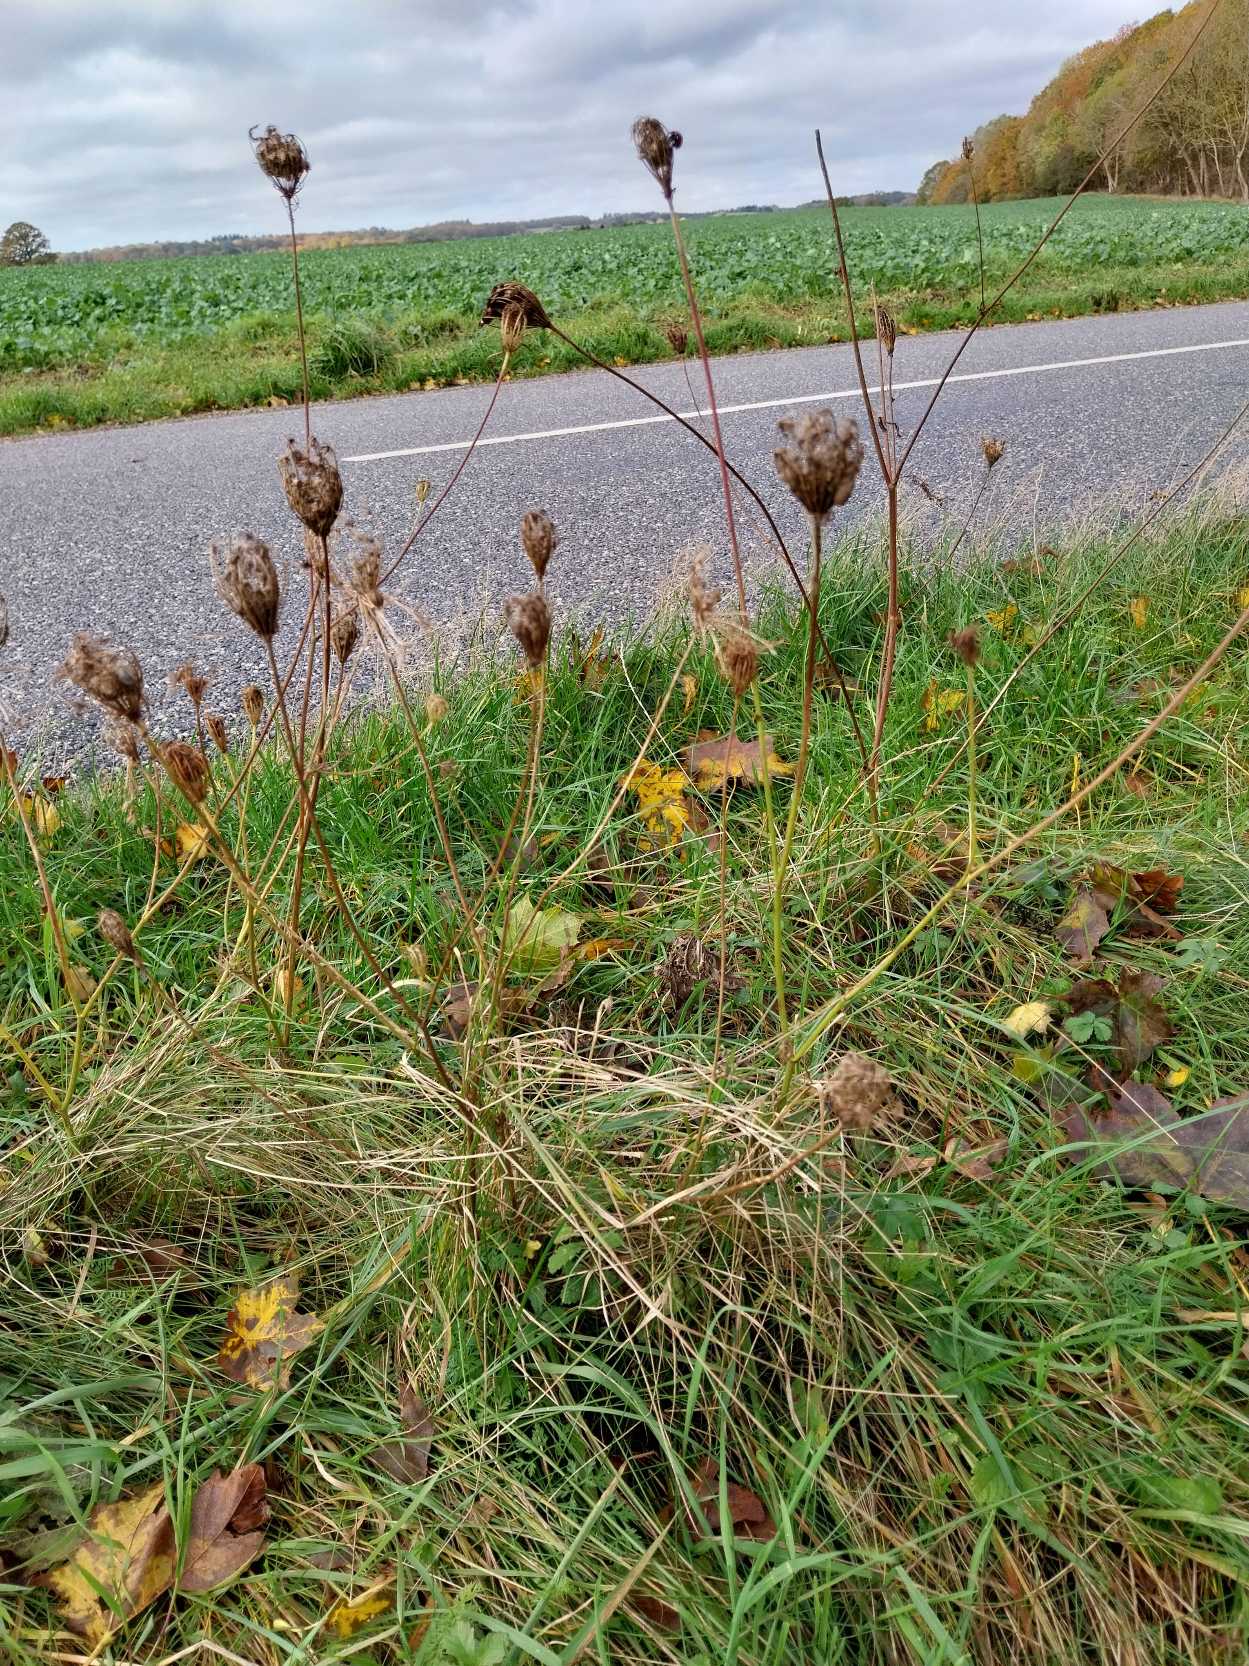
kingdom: Plantae
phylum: Tracheophyta
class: Magnoliopsida
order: Apiales
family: Apiaceae
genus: Daucus
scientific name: Daucus carota
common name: Gulerod
